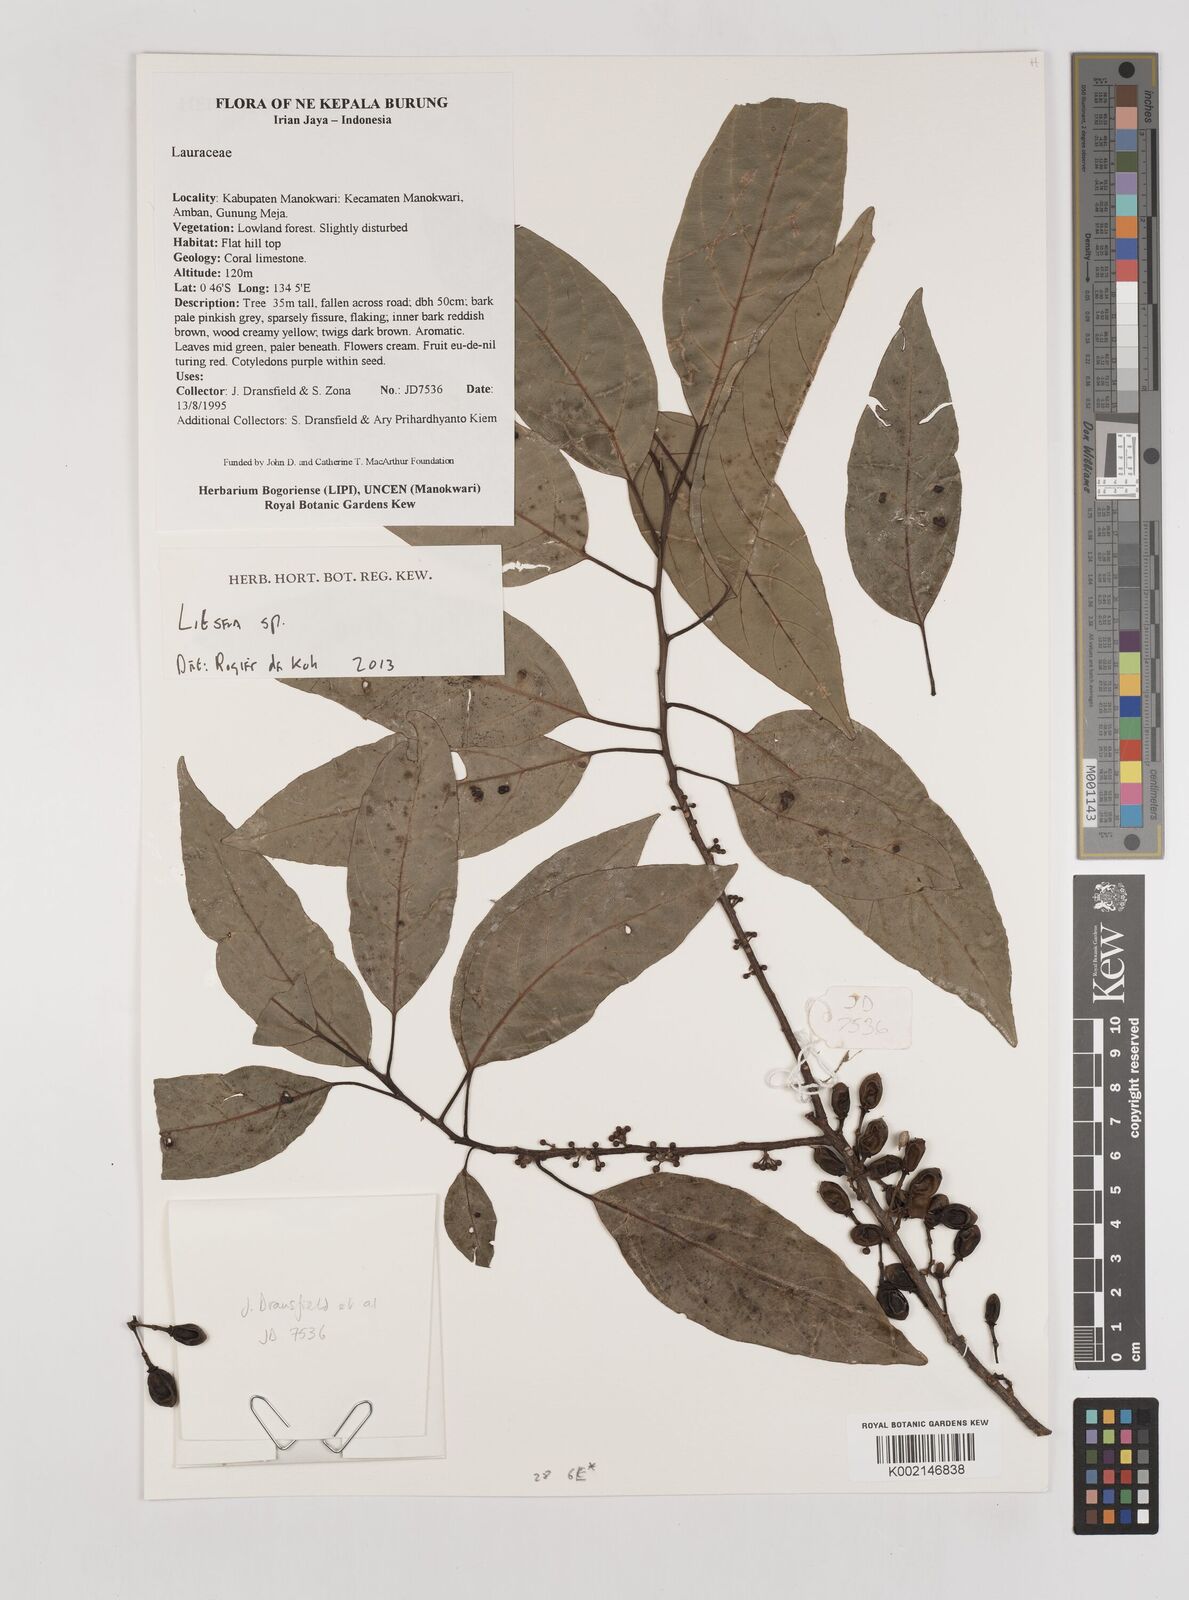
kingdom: Plantae
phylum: Tracheophyta
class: Magnoliopsida
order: Laurales
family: Lauraceae
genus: Litsea
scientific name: Litsea
